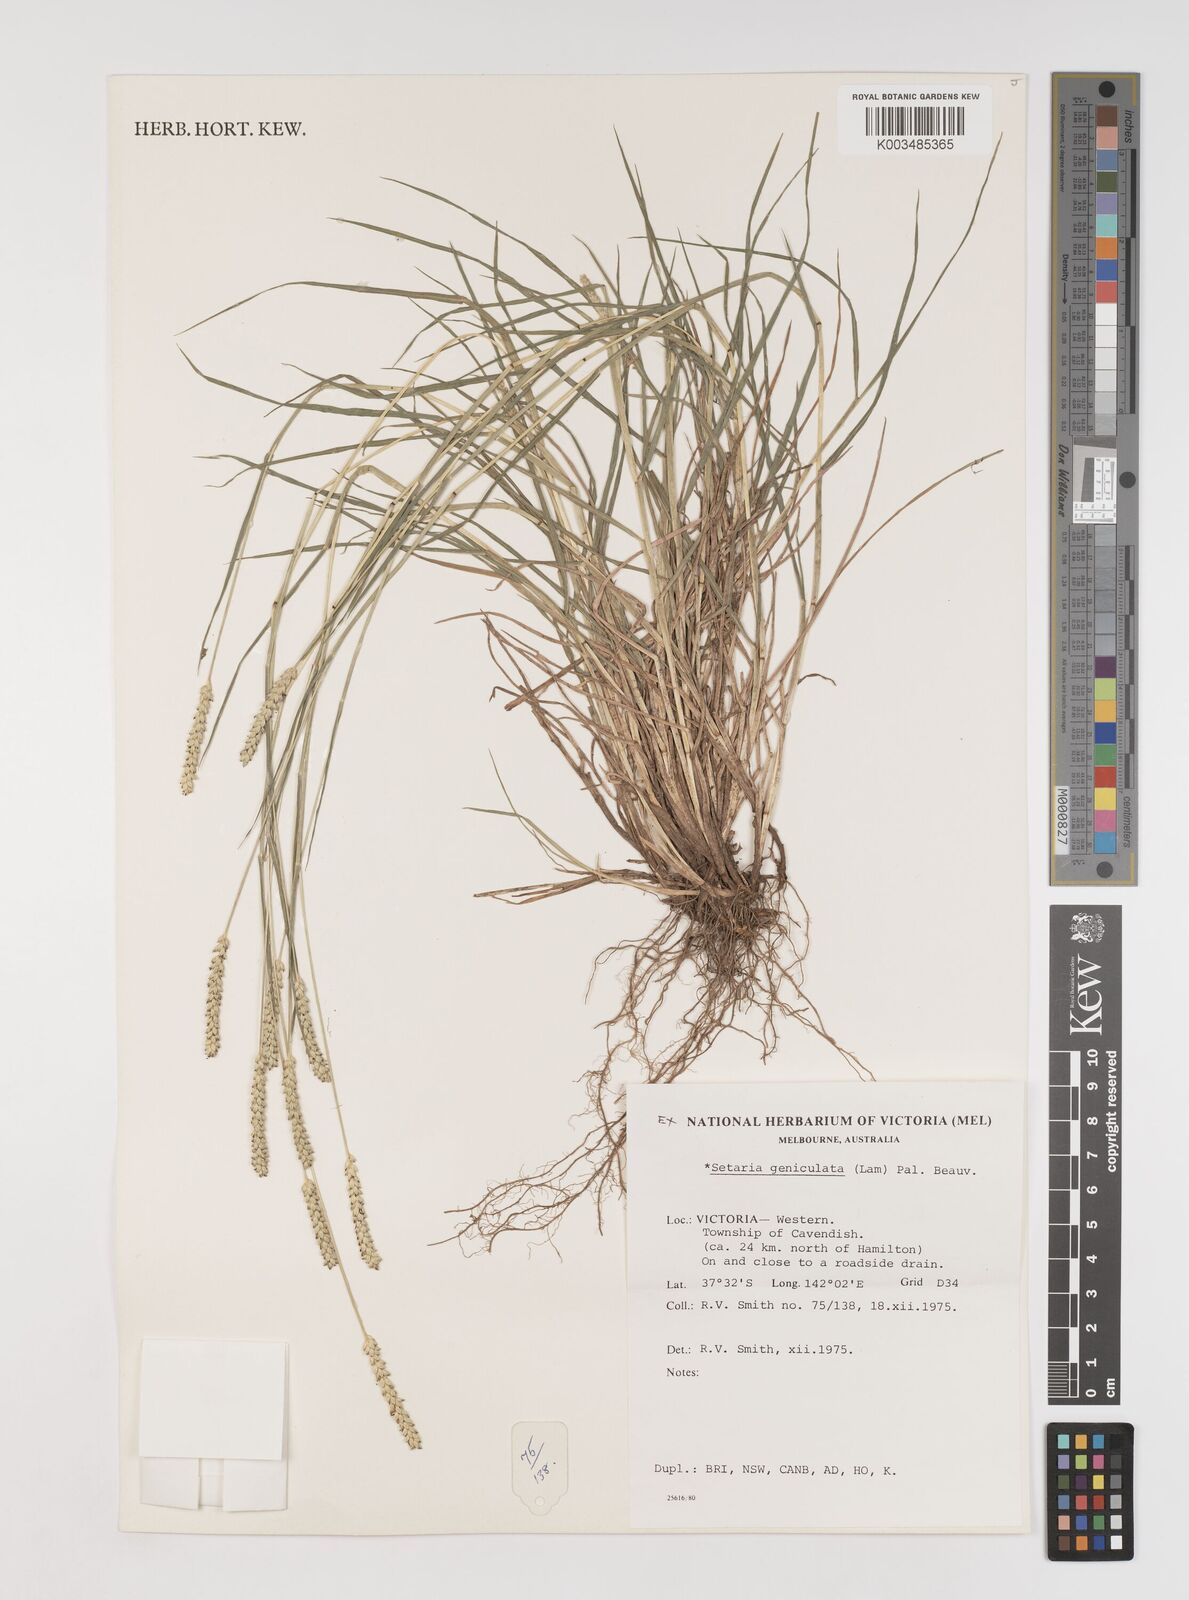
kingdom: Plantae
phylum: Tracheophyta
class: Liliopsida
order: Poales
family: Poaceae
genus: Setaria
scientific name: Setaria parviflora
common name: Knotroot bristle-grass
